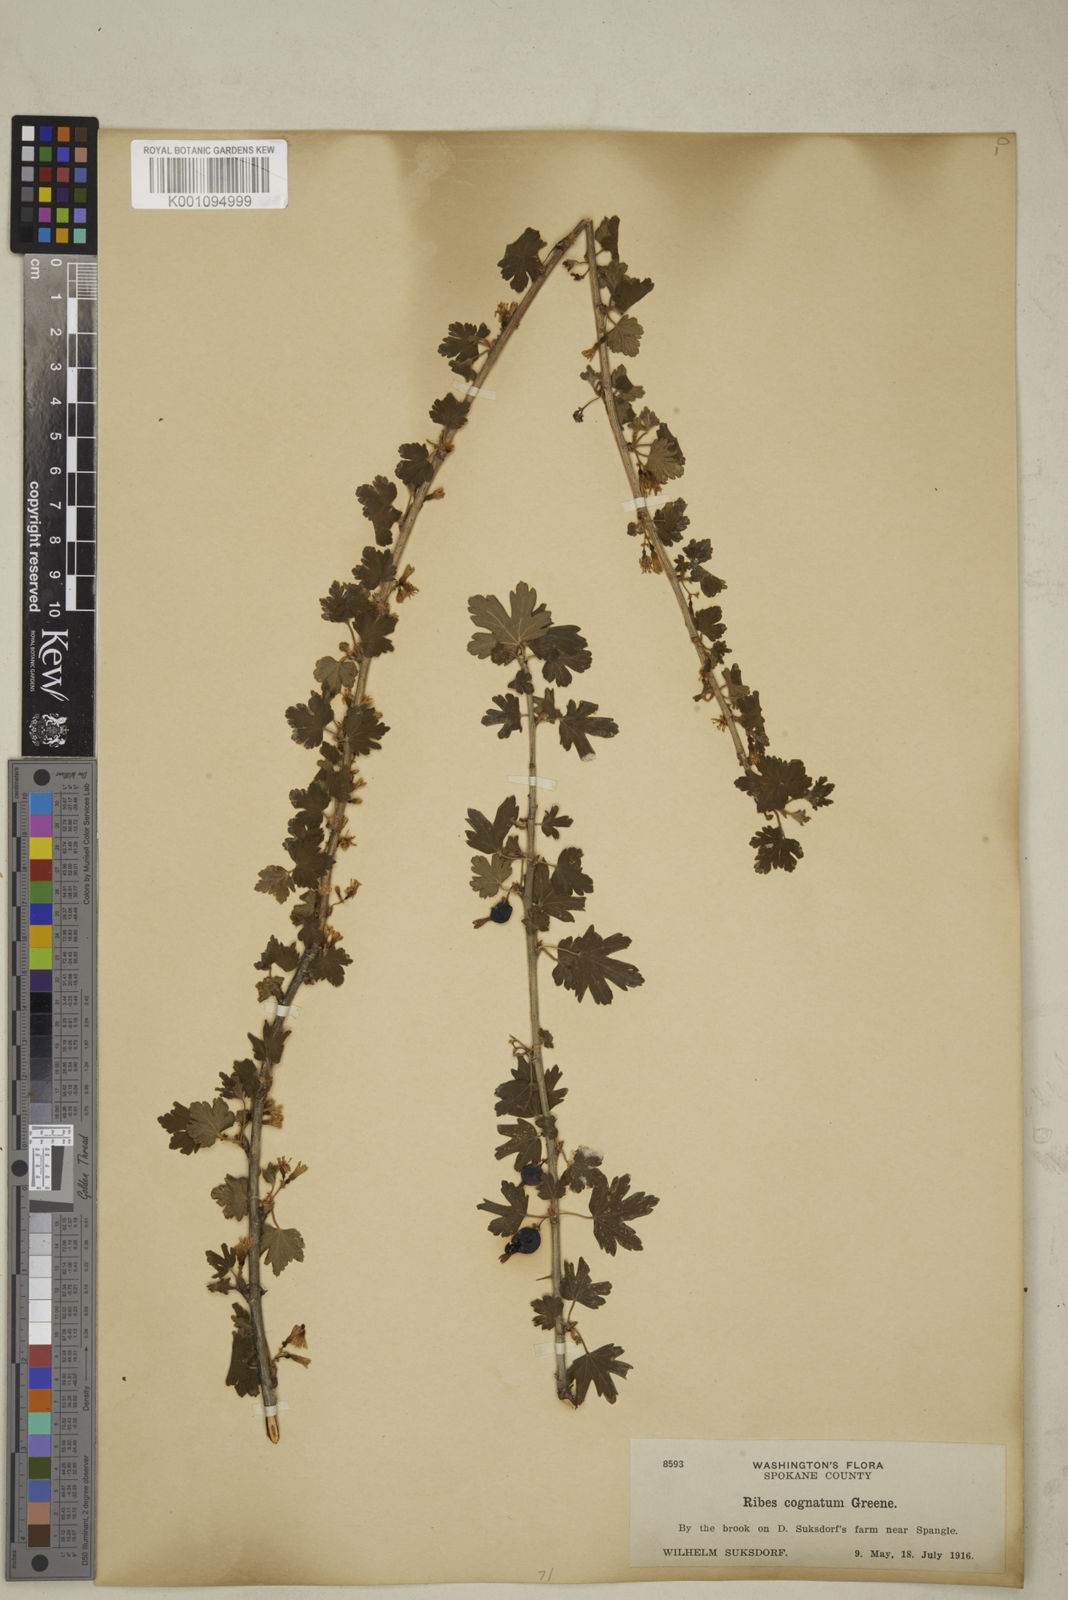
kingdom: Plantae
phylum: Tracheophyta
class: Magnoliopsida
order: Saxifragales
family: Grossulariaceae
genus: Ribes
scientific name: Ribes oxyacanthoides
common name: Northern gooseberry
